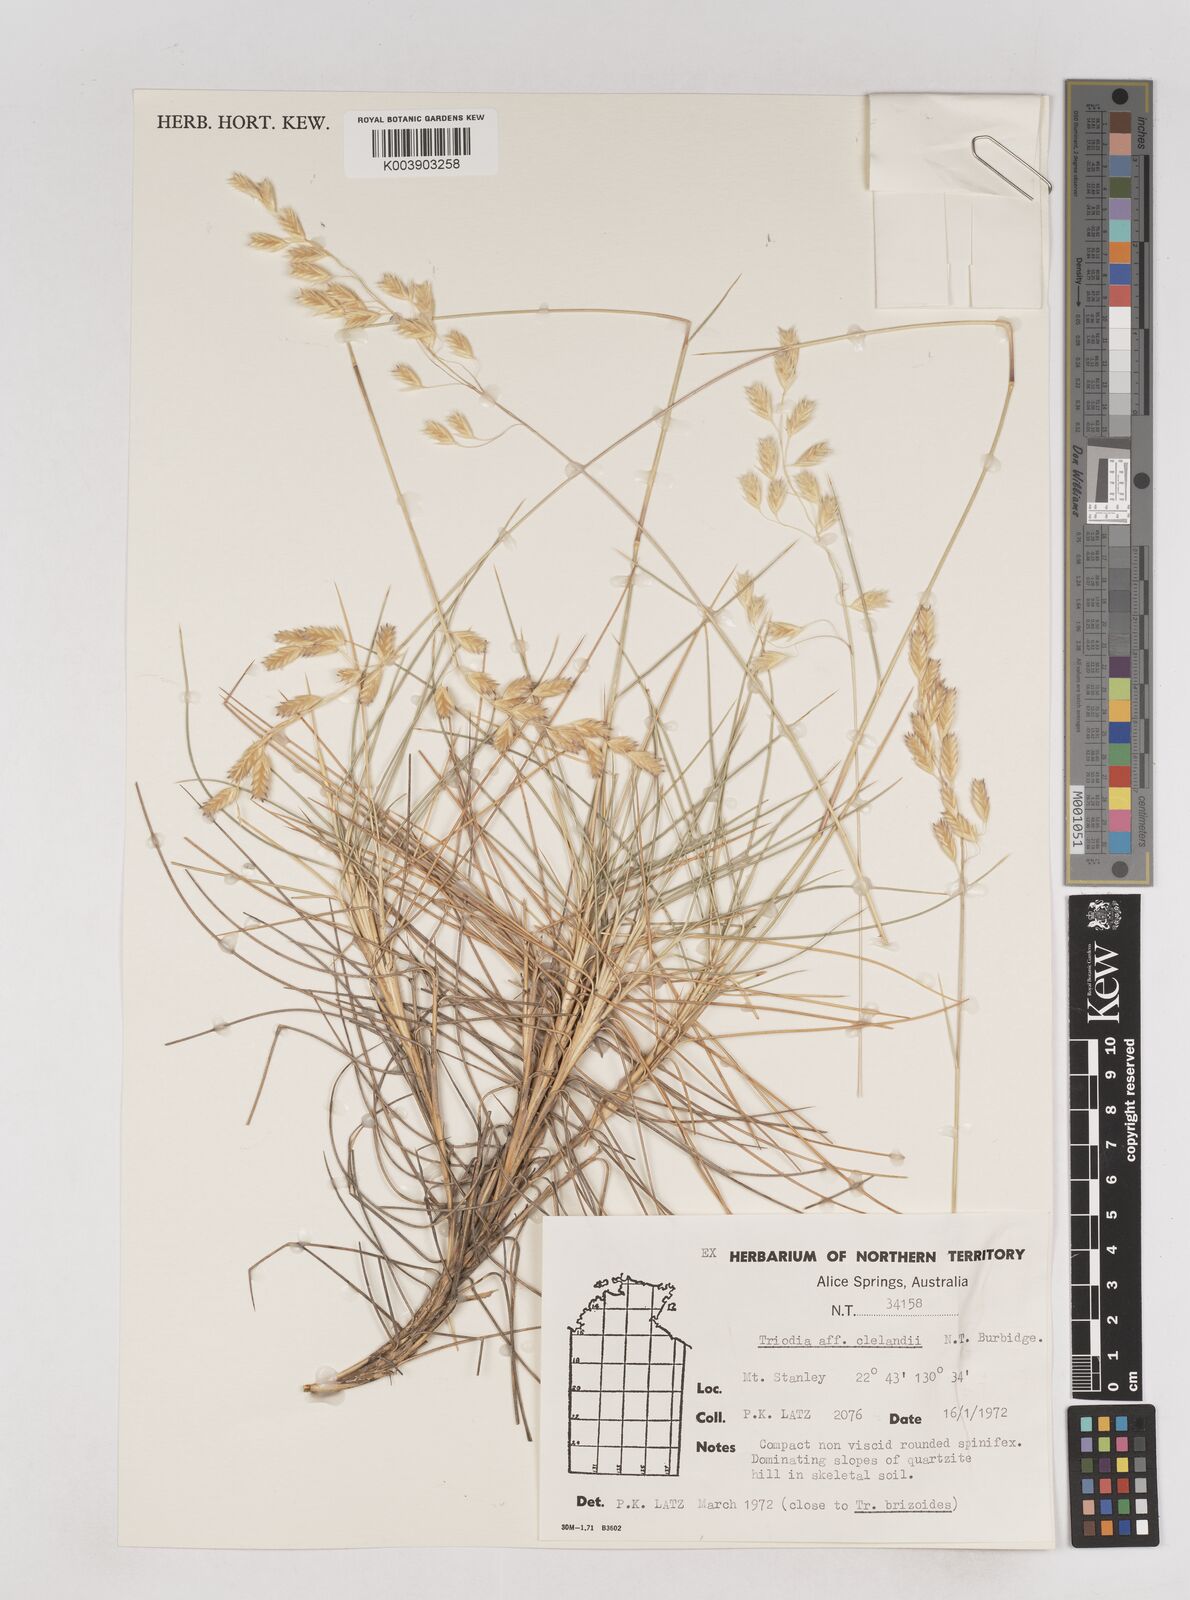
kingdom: Plantae
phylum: Tracheophyta
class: Liliopsida
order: Poales
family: Poaceae
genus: Triodia
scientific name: Triodia brizoides
